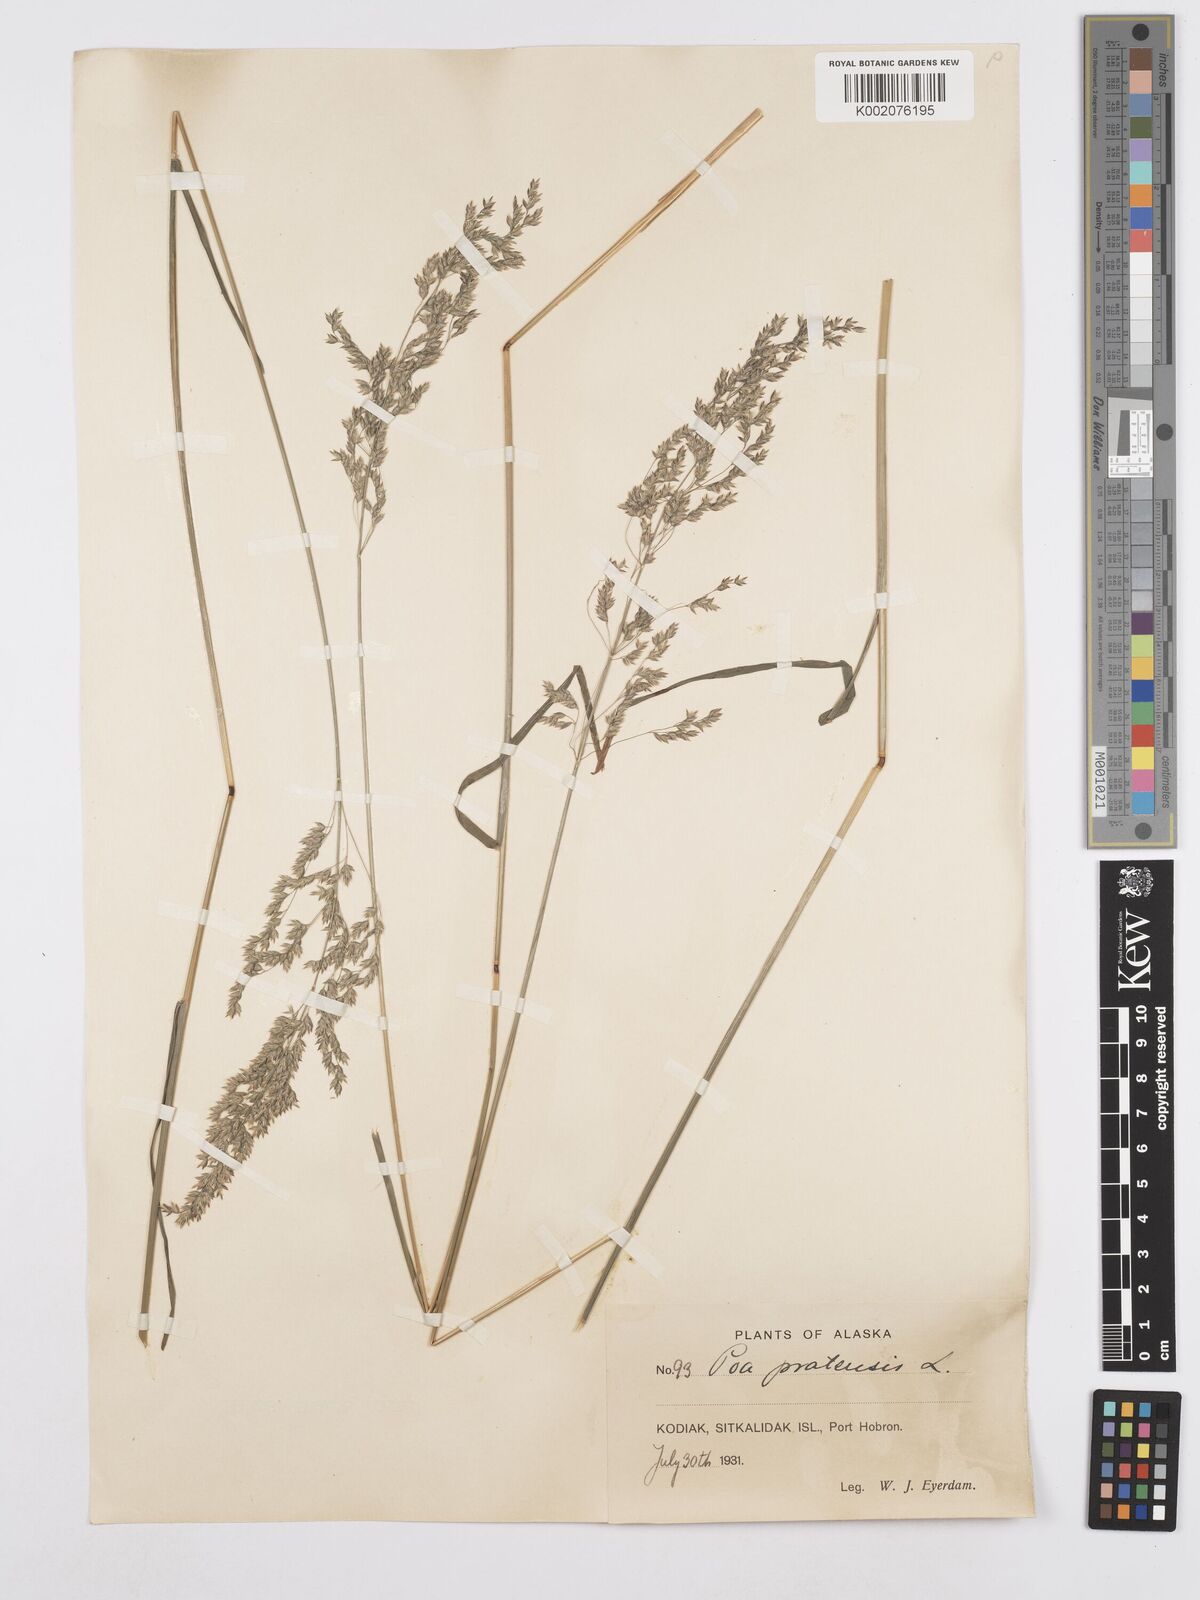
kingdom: Plantae
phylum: Tracheophyta
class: Liliopsida
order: Poales
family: Poaceae
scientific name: Poaceae
